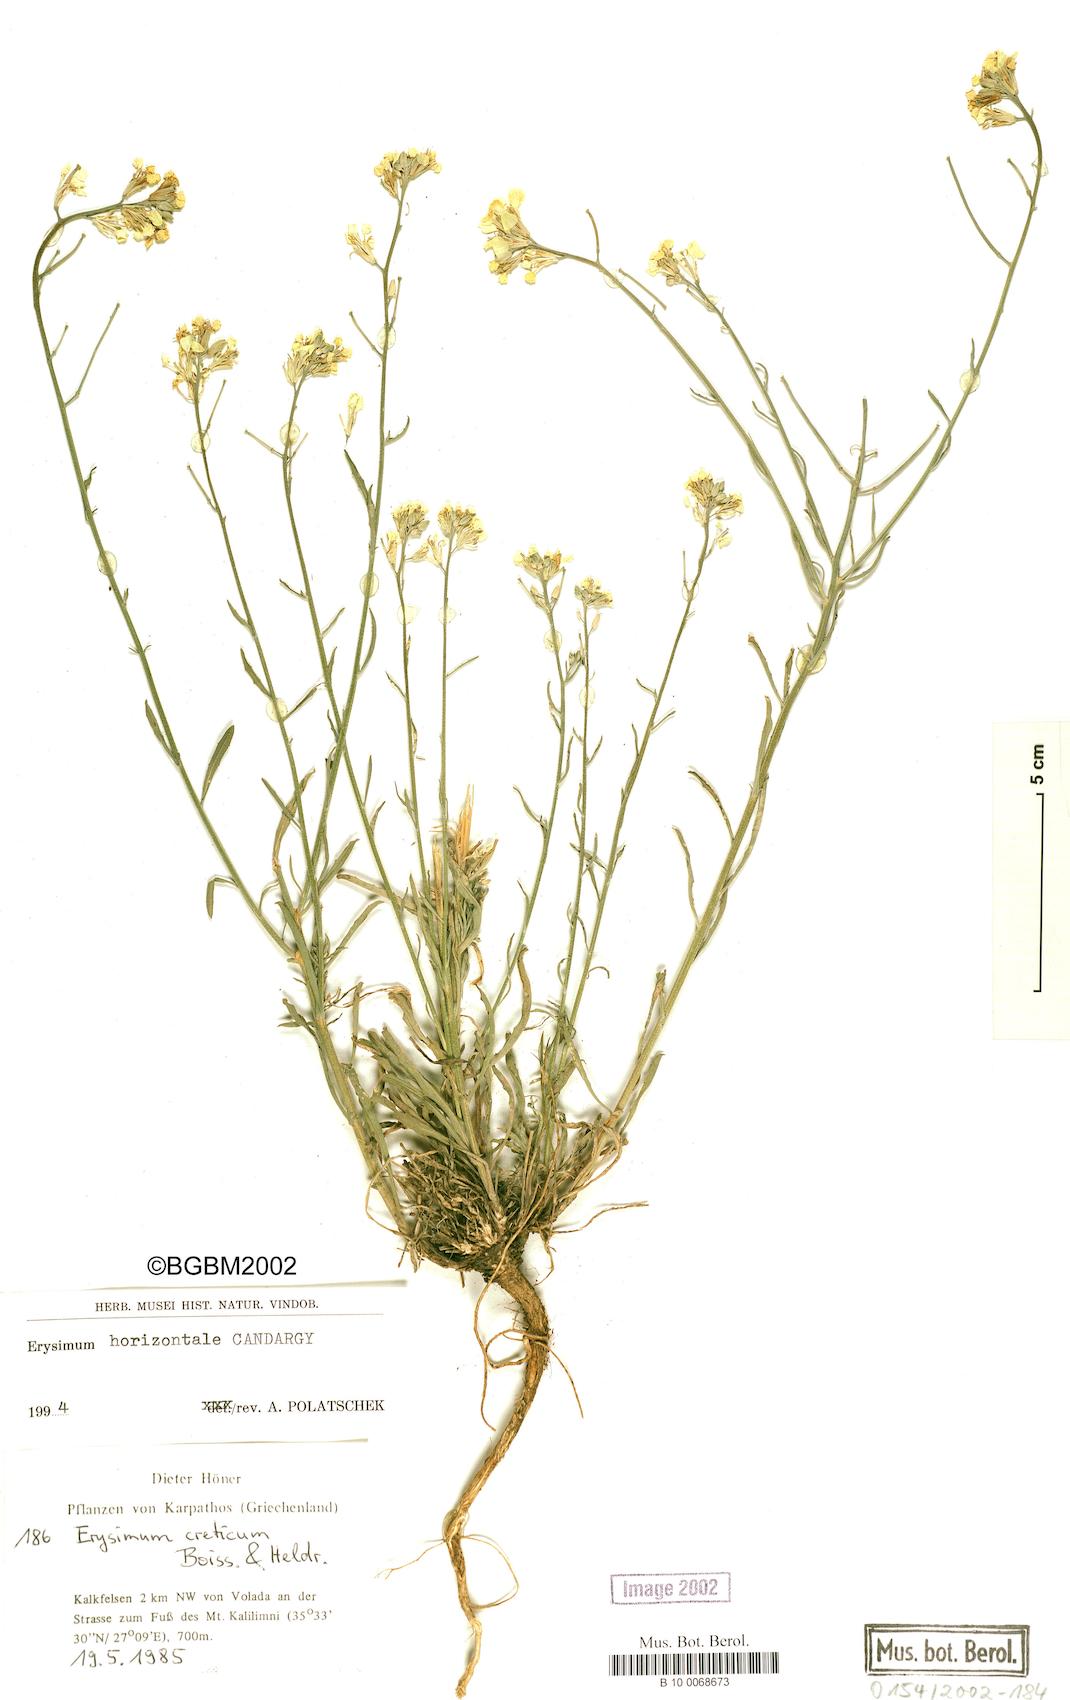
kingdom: Plantae
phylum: Tracheophyta
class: Magnoliopsida
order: Brassicales
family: Brassicaceae
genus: Erysimum
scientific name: Erysimum horizontale
